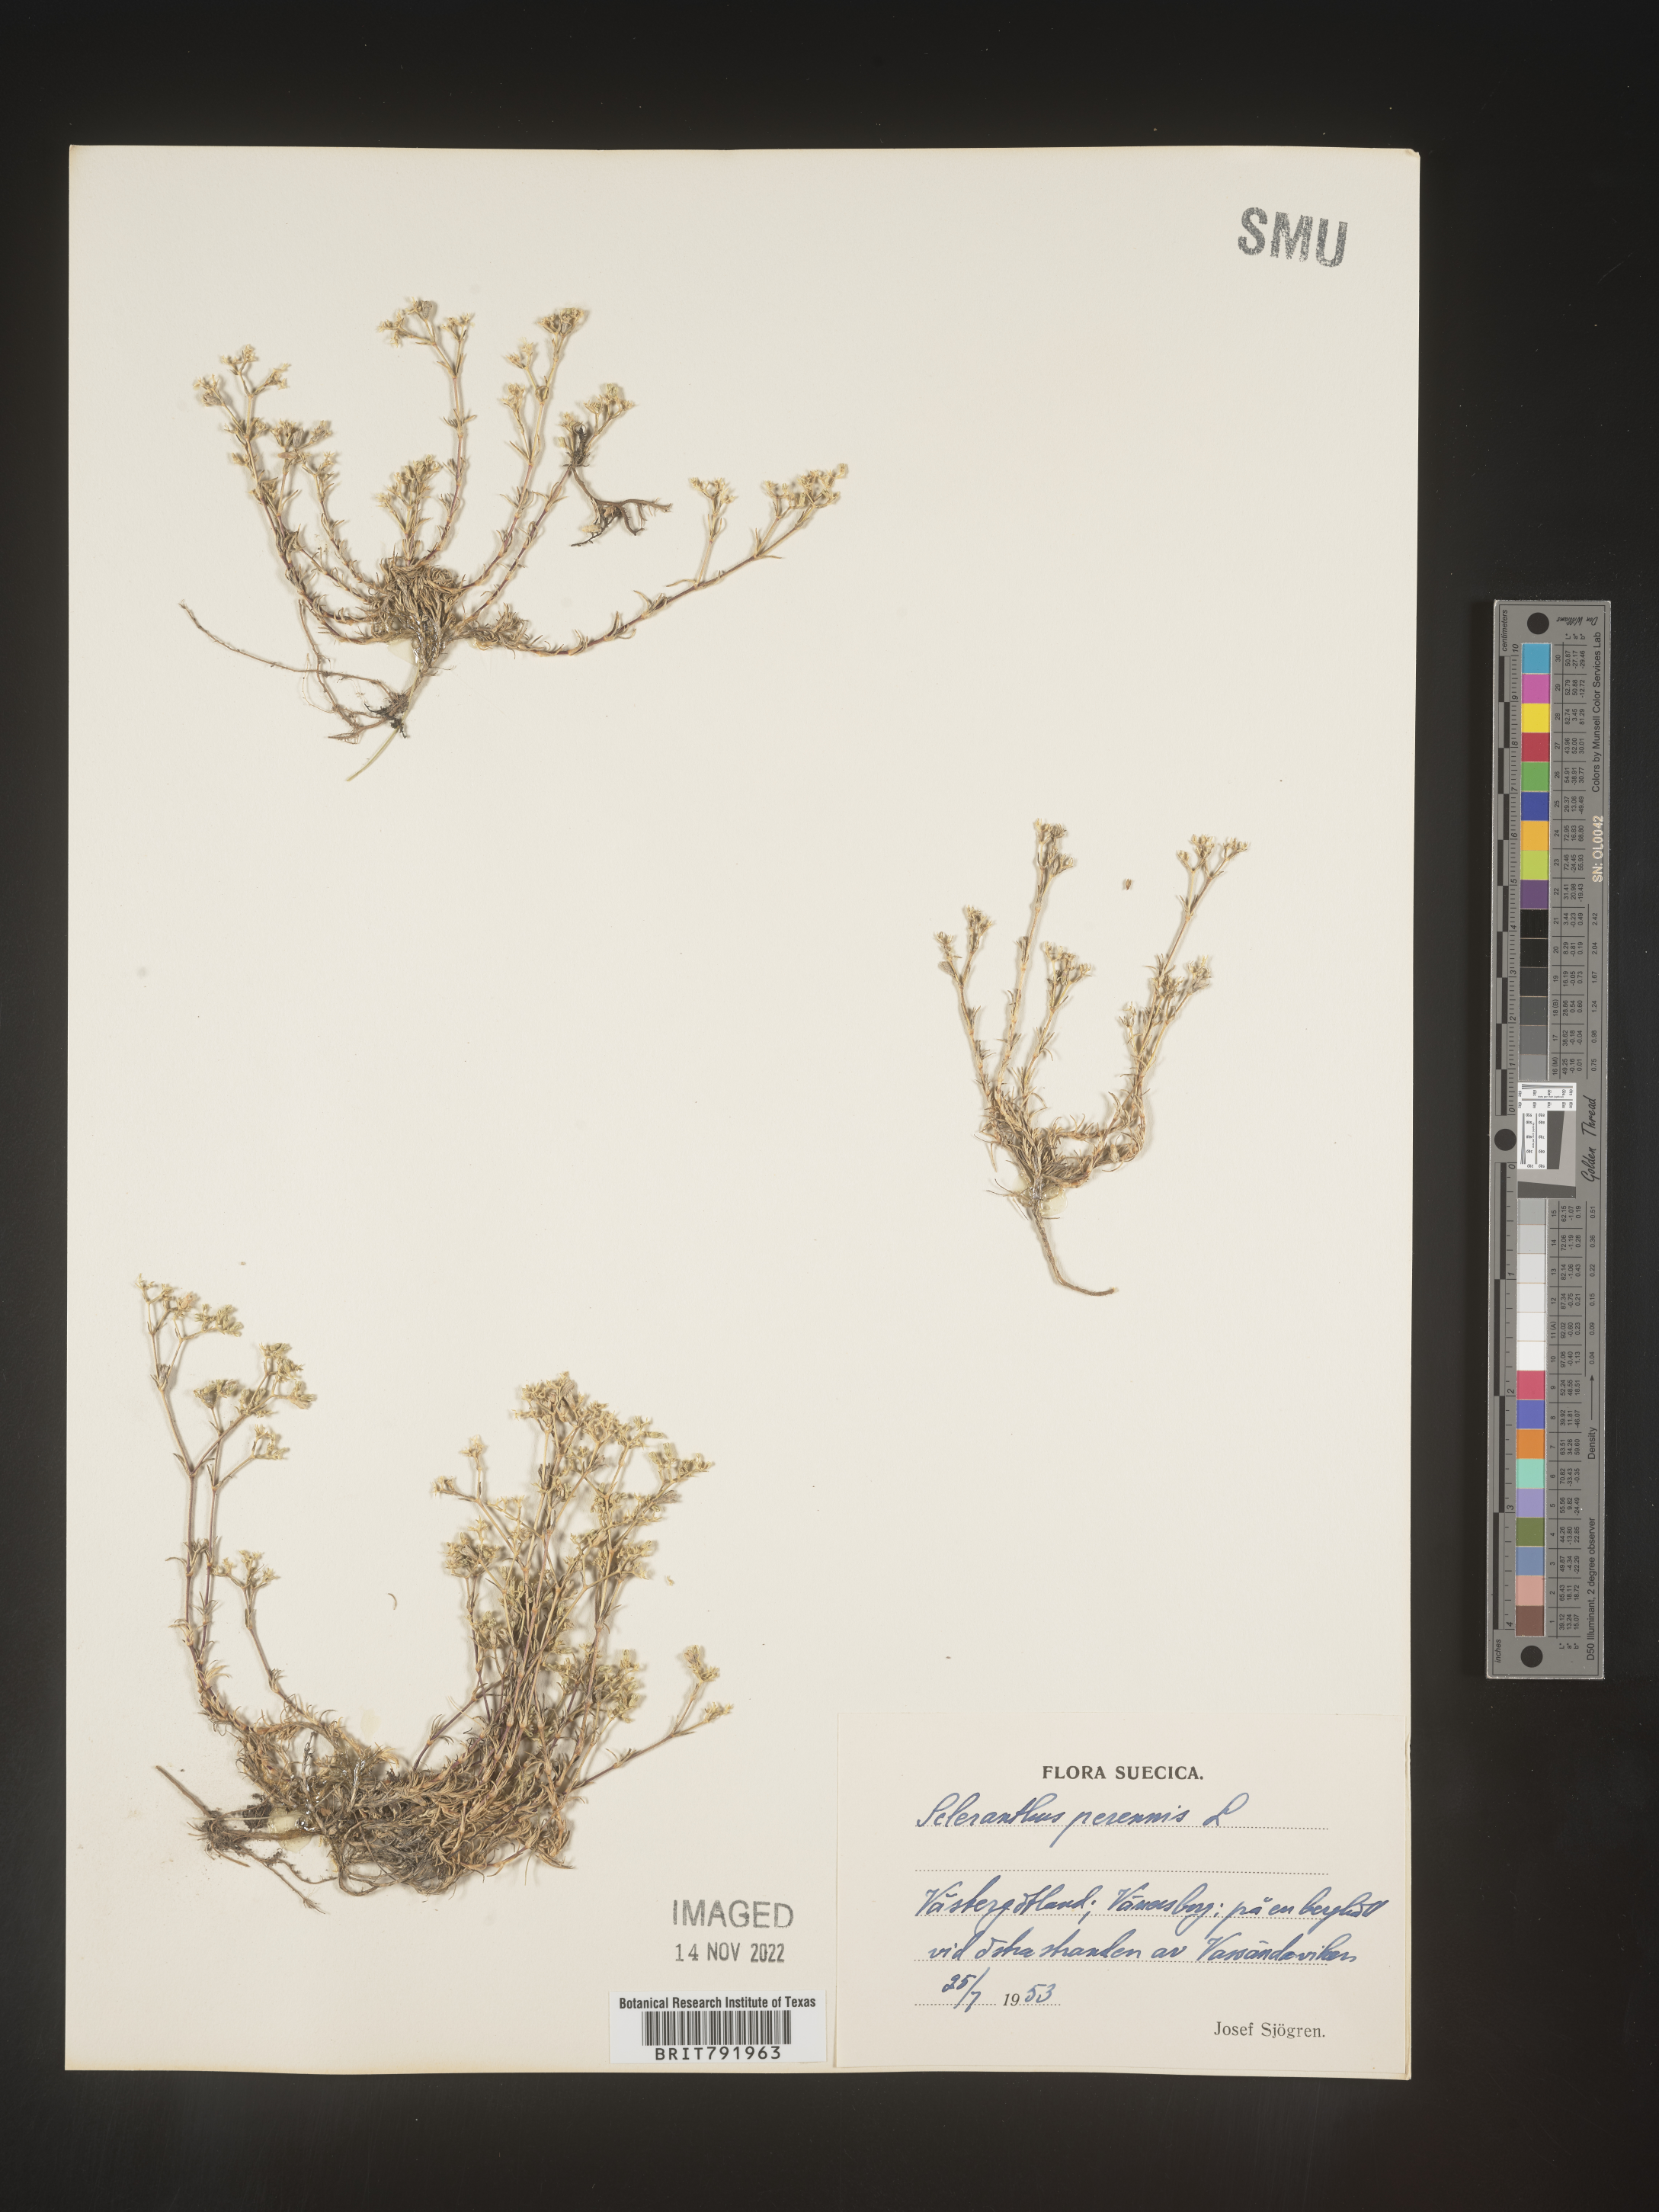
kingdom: Plantae
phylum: Tracheophyta
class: Magnoliopsida
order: Caryophyllales
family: Caryophyllaceae
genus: Scleranthus
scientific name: Scleranthus
